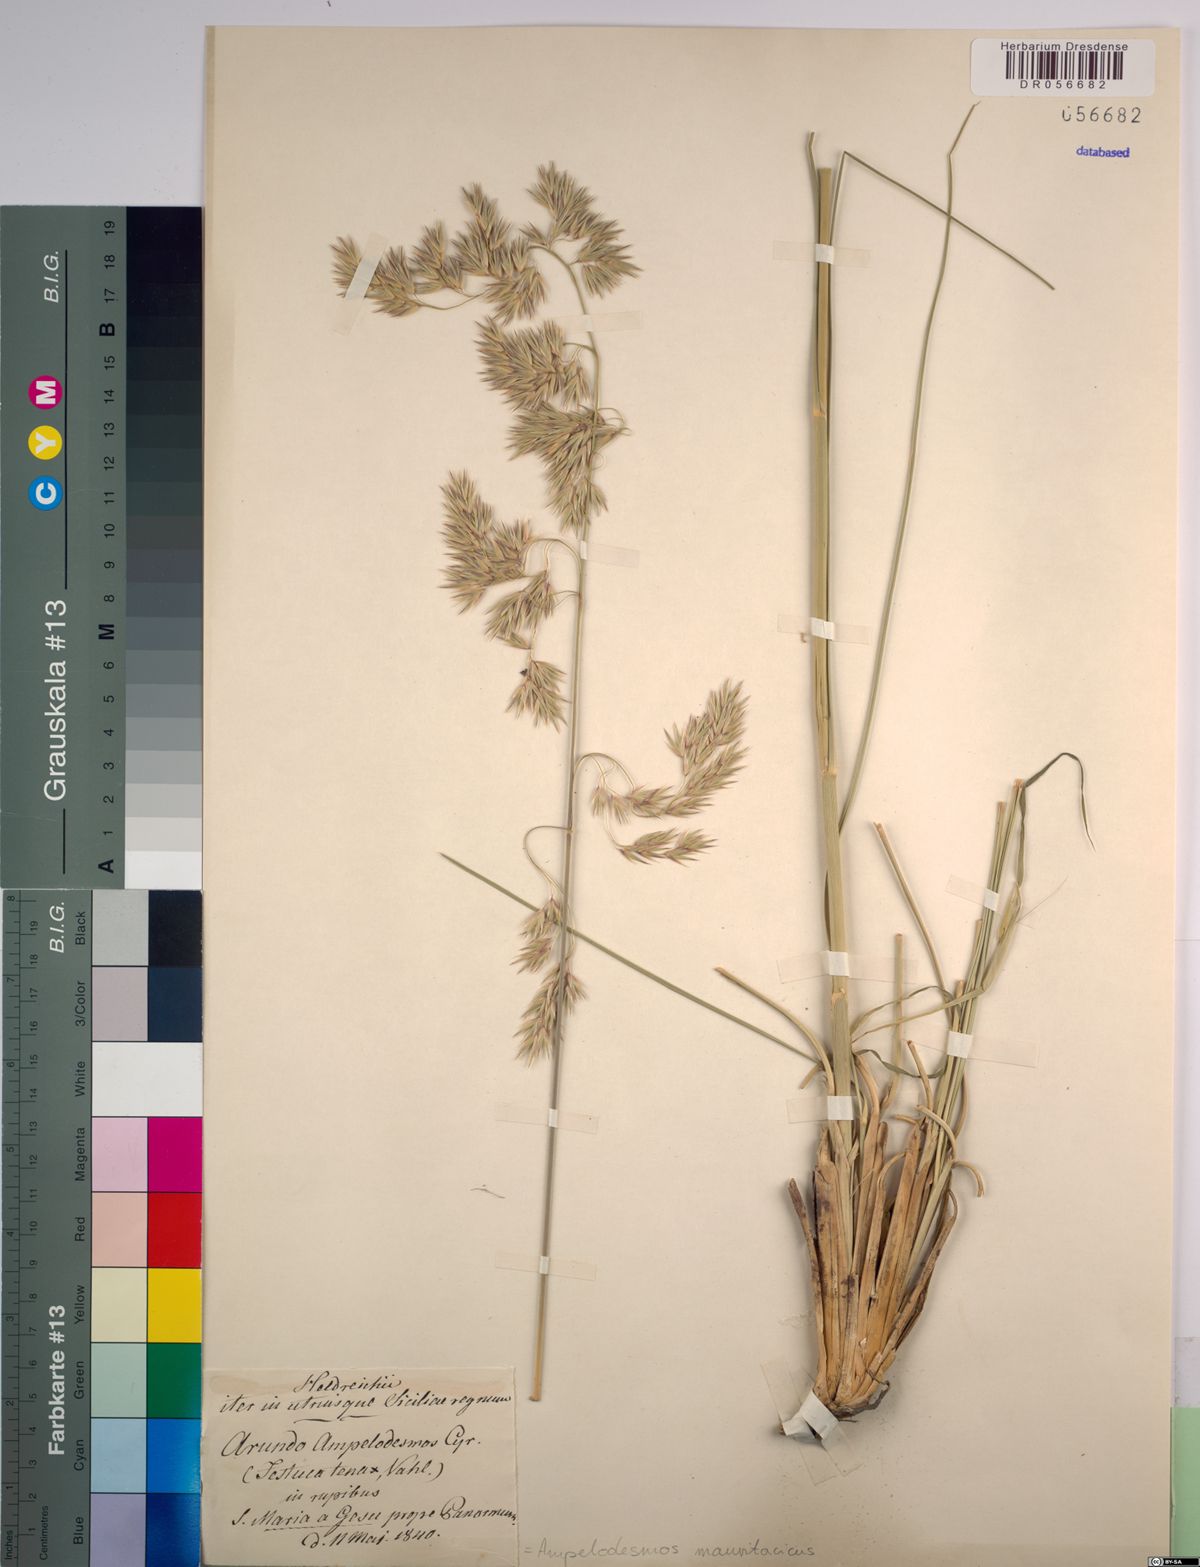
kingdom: Plantae
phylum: Tracheophyta
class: Liliopsida
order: Poales
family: Poaceae
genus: Ampelodesmos
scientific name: Ampelodesmos mauritanicus
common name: Mauritanian grass
